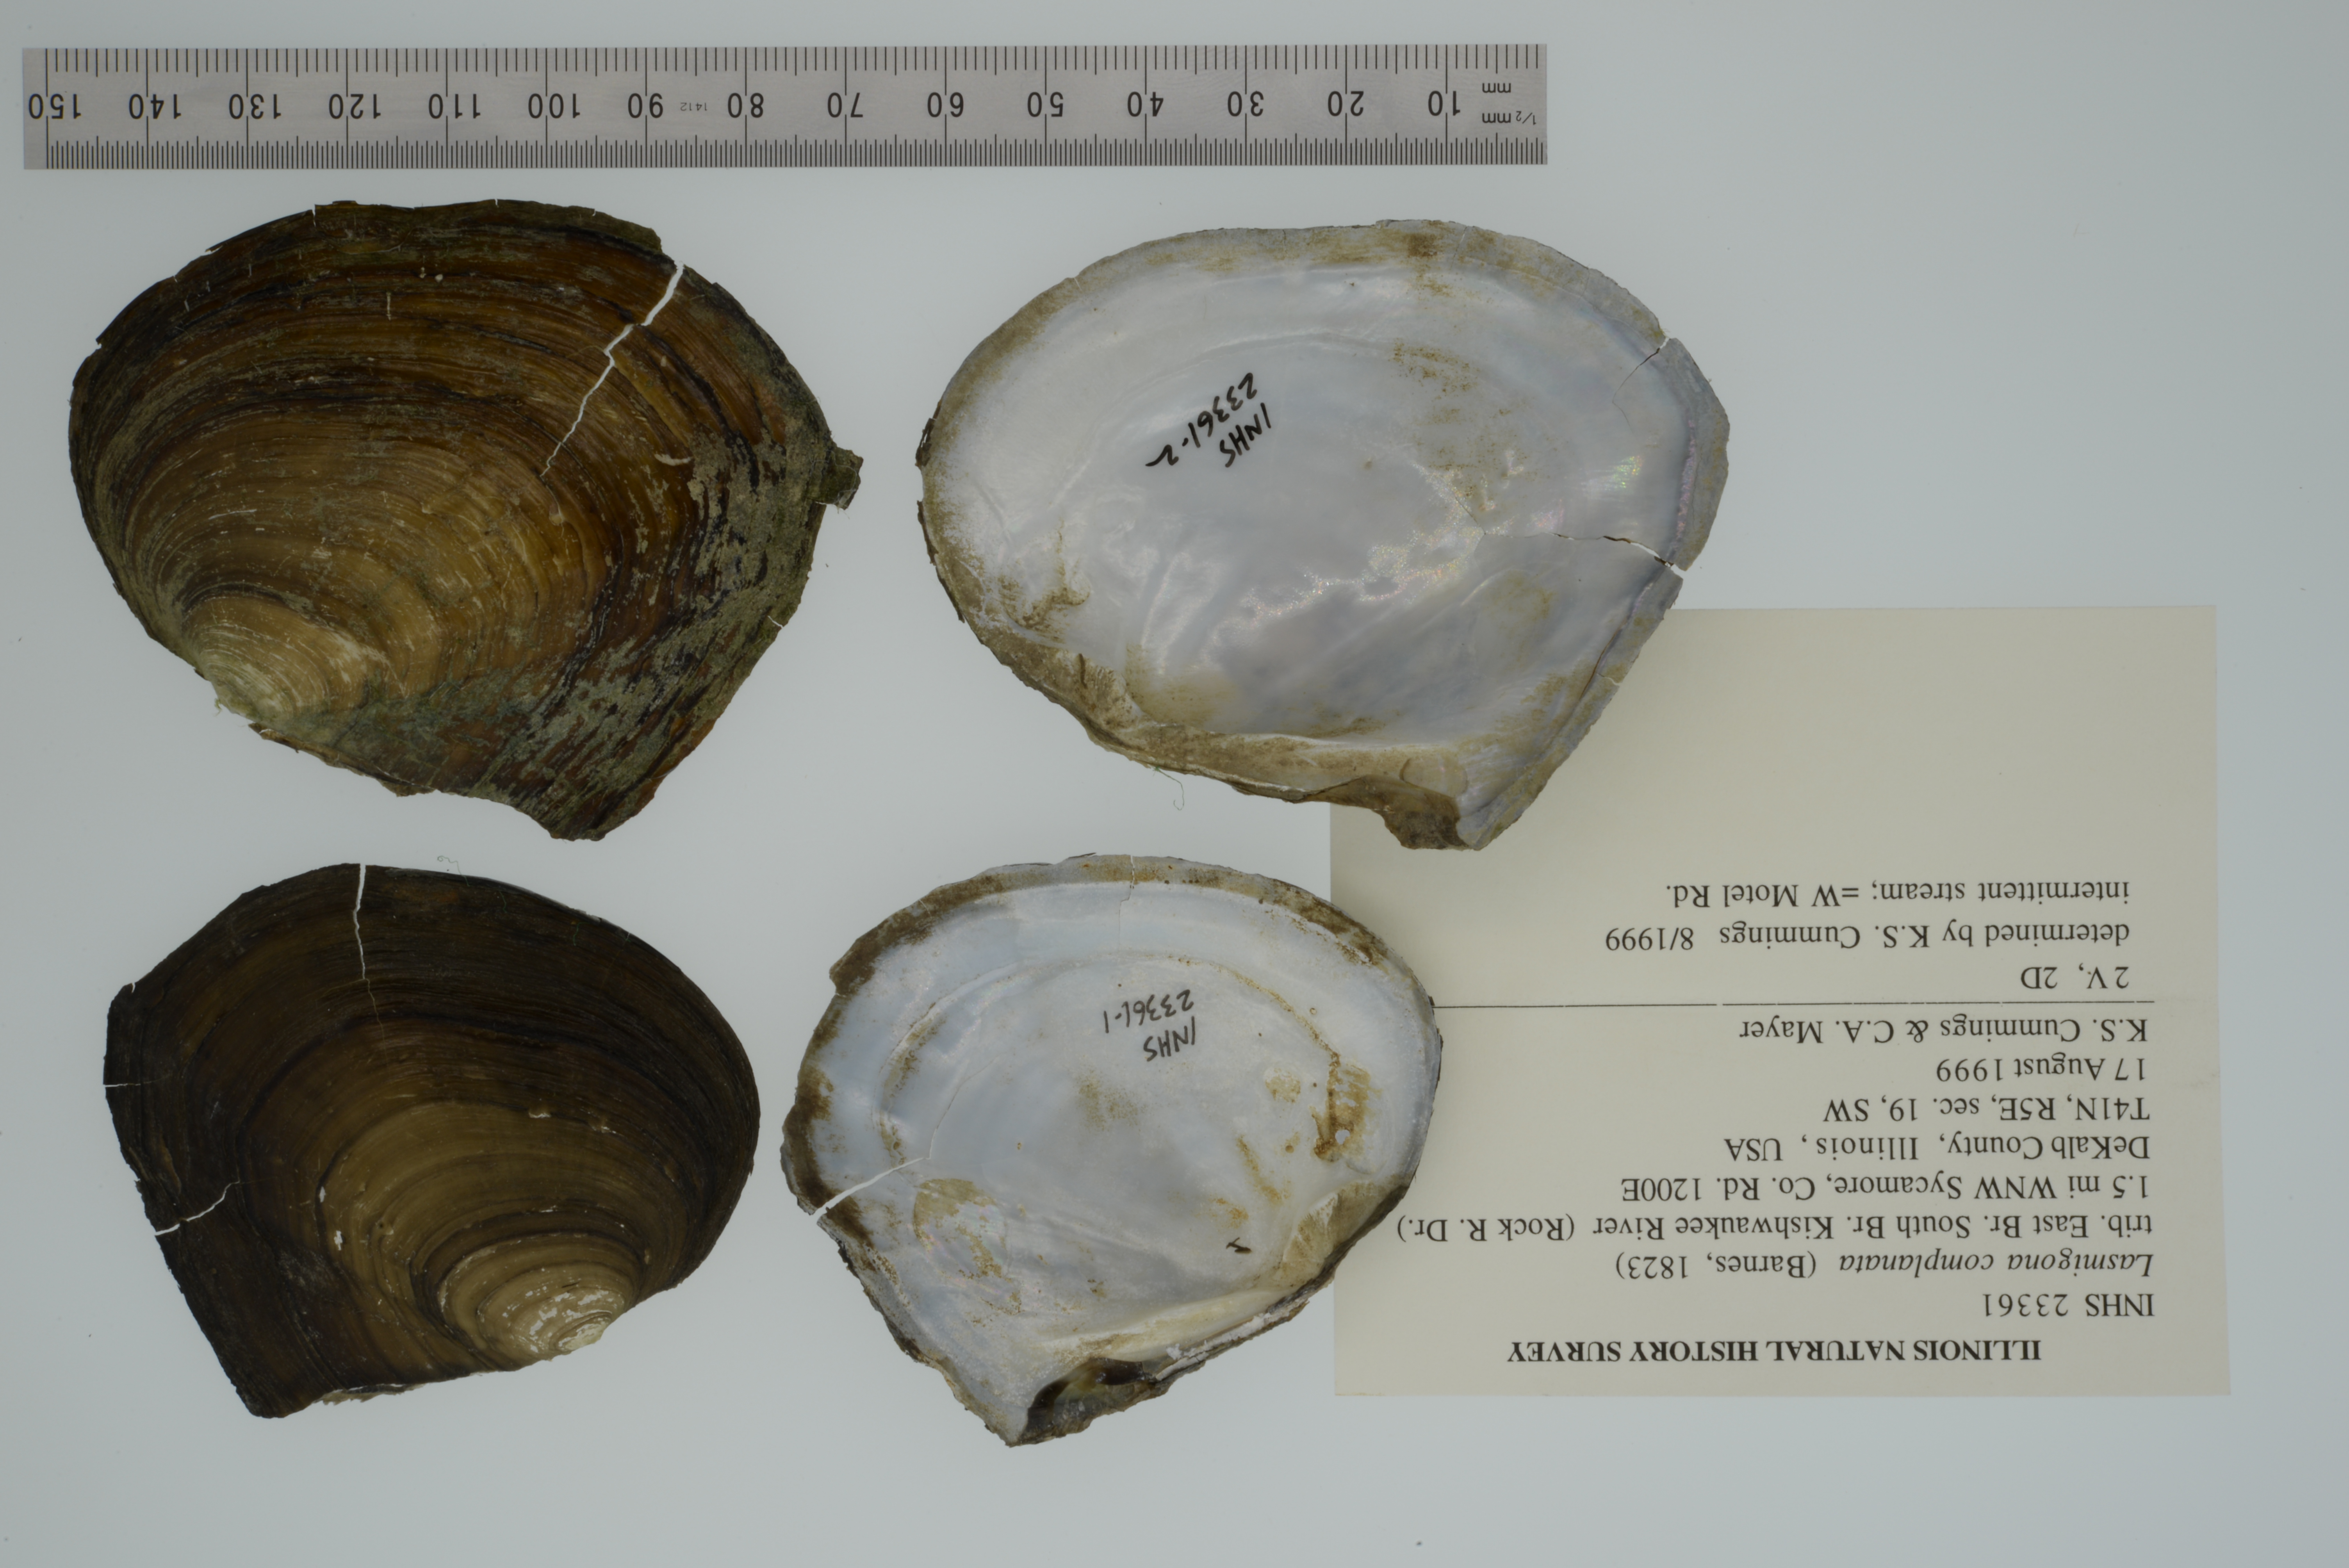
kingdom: Animalia
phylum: Mollusca
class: Bivalvia
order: Unionida
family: Unionidae
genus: Lasmigona
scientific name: Lasmigona complanata
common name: White heelsplitter
